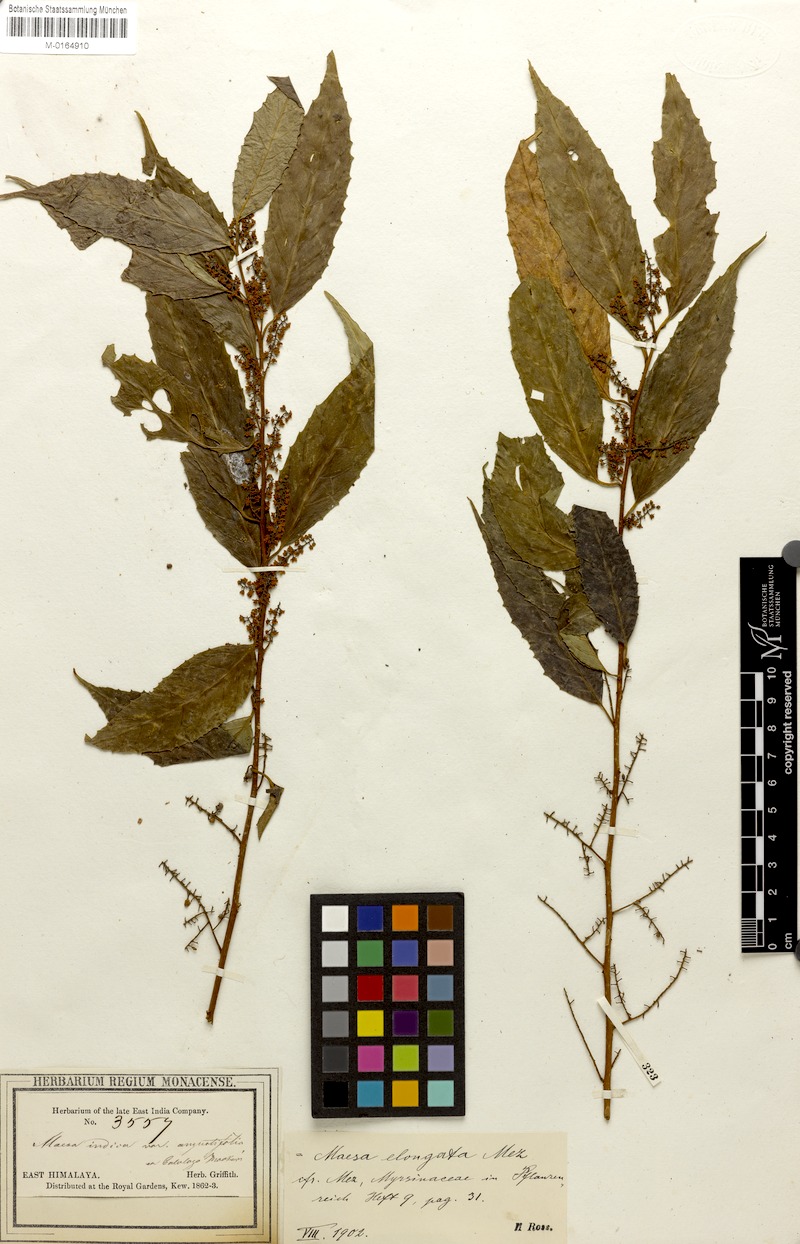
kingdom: Plantae
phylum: Tracheophyta
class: Magnoliopsida
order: Ericales
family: Primulaceae
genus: Maesa
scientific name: Maesa montana
